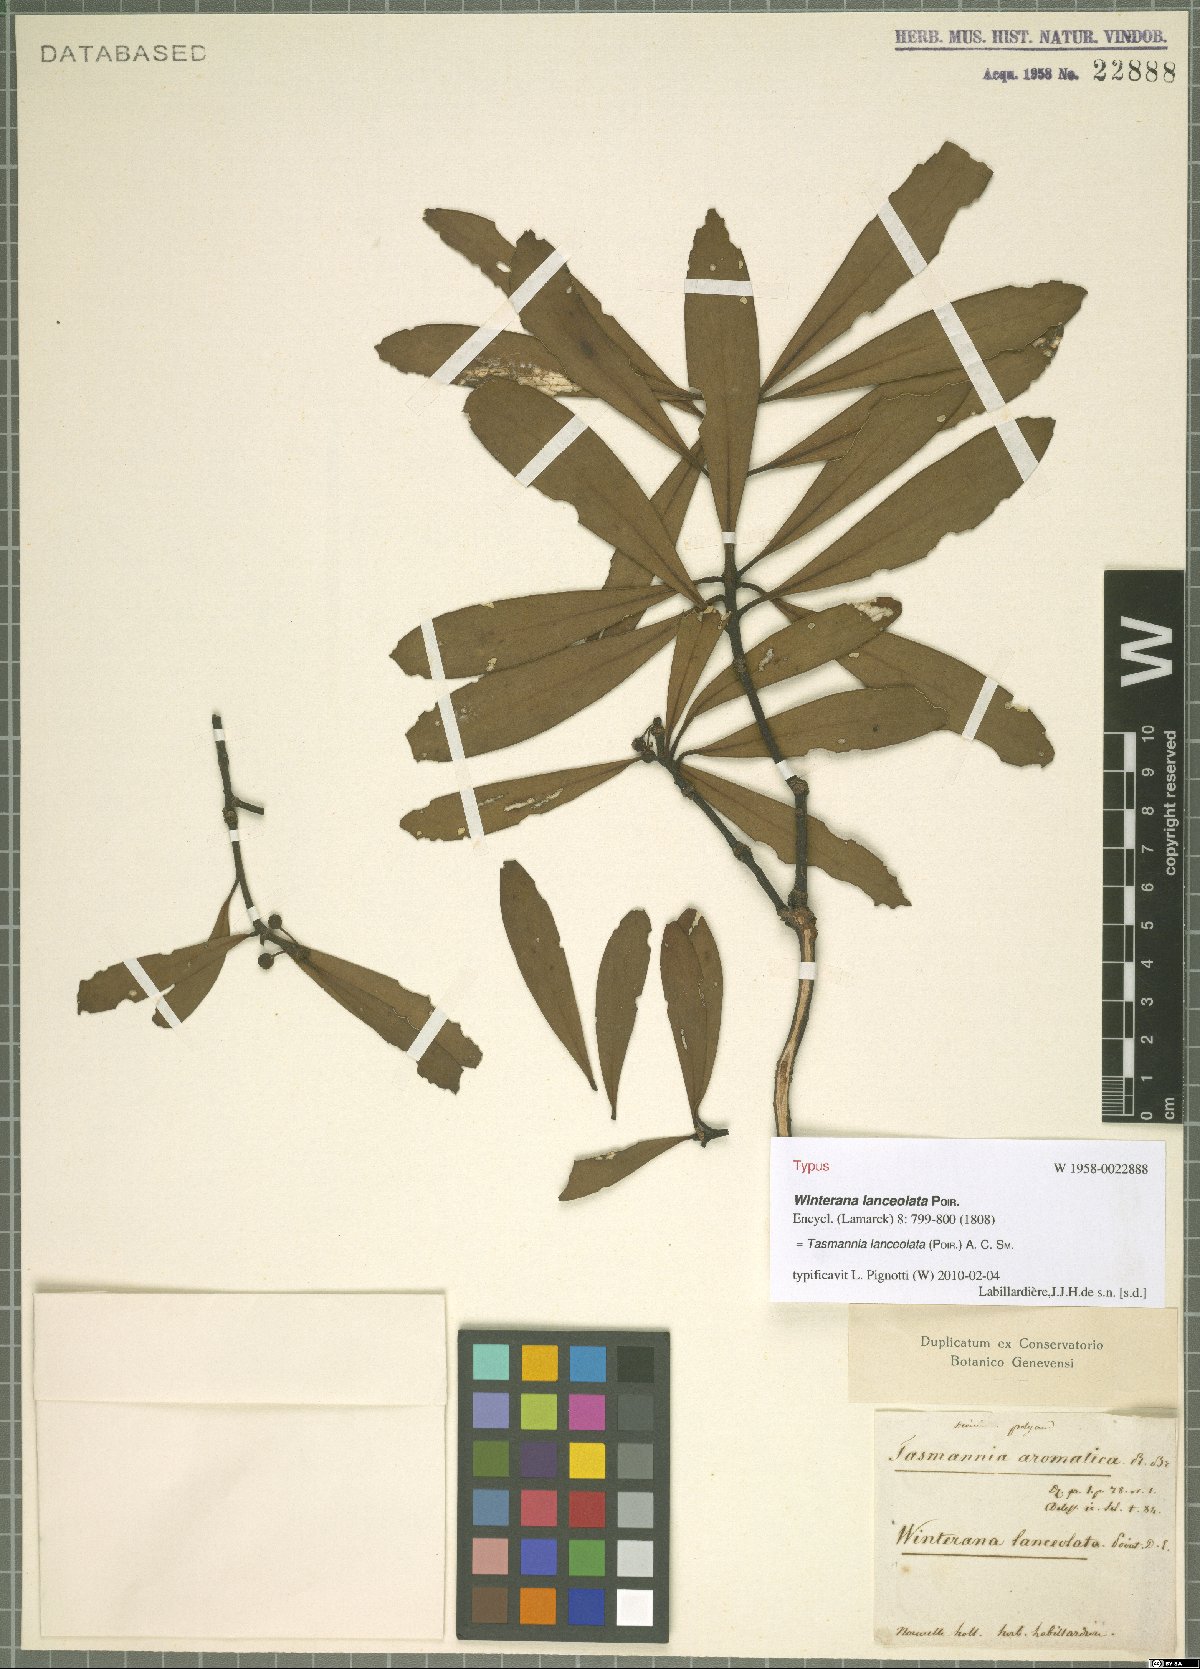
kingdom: Plantae
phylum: Tracheophyta
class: Magnoliopsida
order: Canellales
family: Winteraceae
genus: Drimys
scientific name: Drimys aromatica
